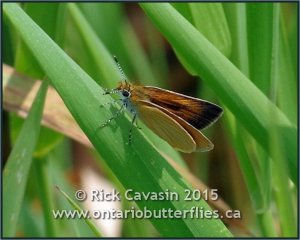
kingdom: Animalia
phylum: Arthropoda
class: Insecta
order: Lepidoptera
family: Hesperiidae
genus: Ancyloxypha
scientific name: Ancyloxypha numitor
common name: Least Skipper
